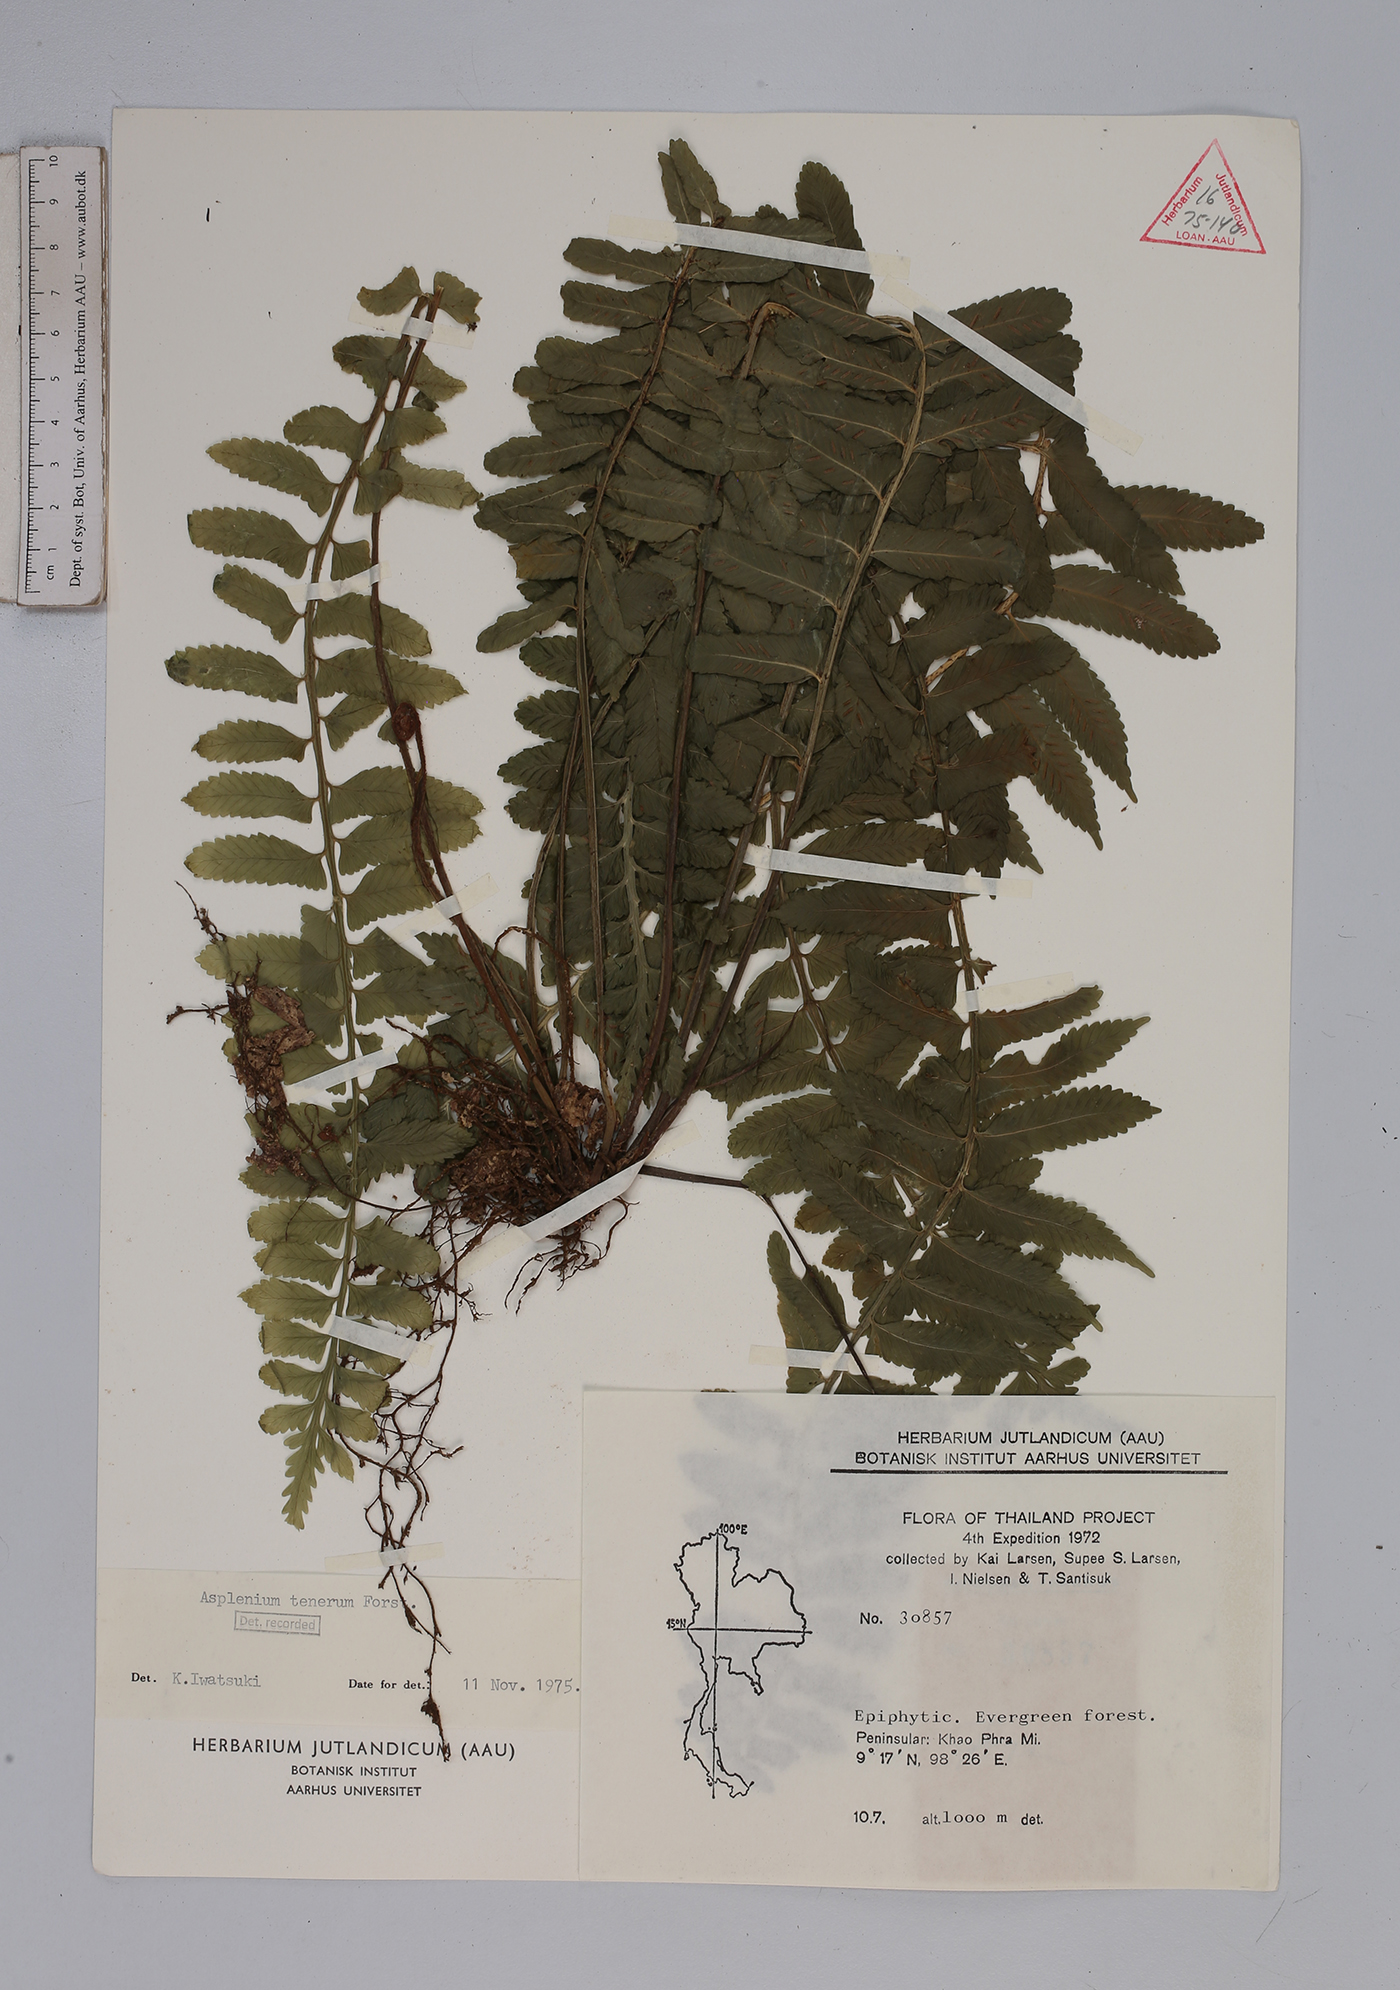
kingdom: Plantae
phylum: Tracheophyta
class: Polypodiopsida
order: Polypodiales
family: Aspleniaceae
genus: Asplenium
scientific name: Asplenium tenerum
